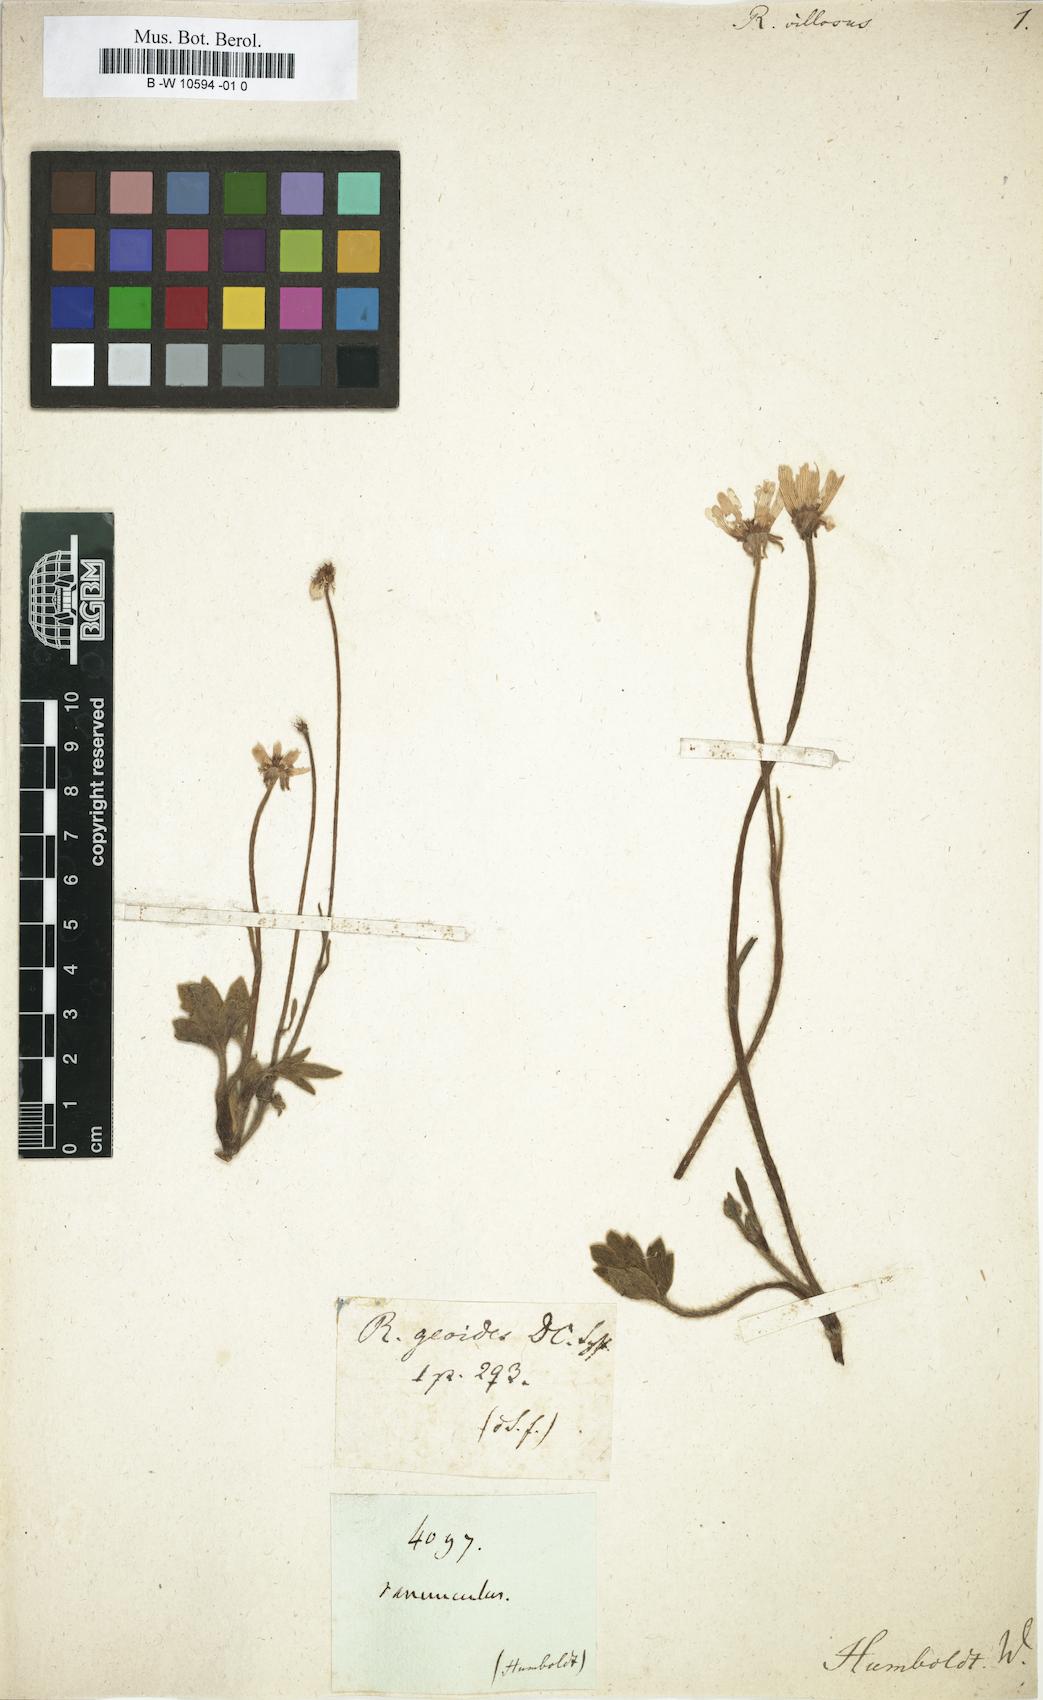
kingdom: Plantae
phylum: Tracheophyta
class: Magnoliopsida
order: Ranunculales
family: Ranunculaceae
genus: Ranunculus
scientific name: Ranunculus
